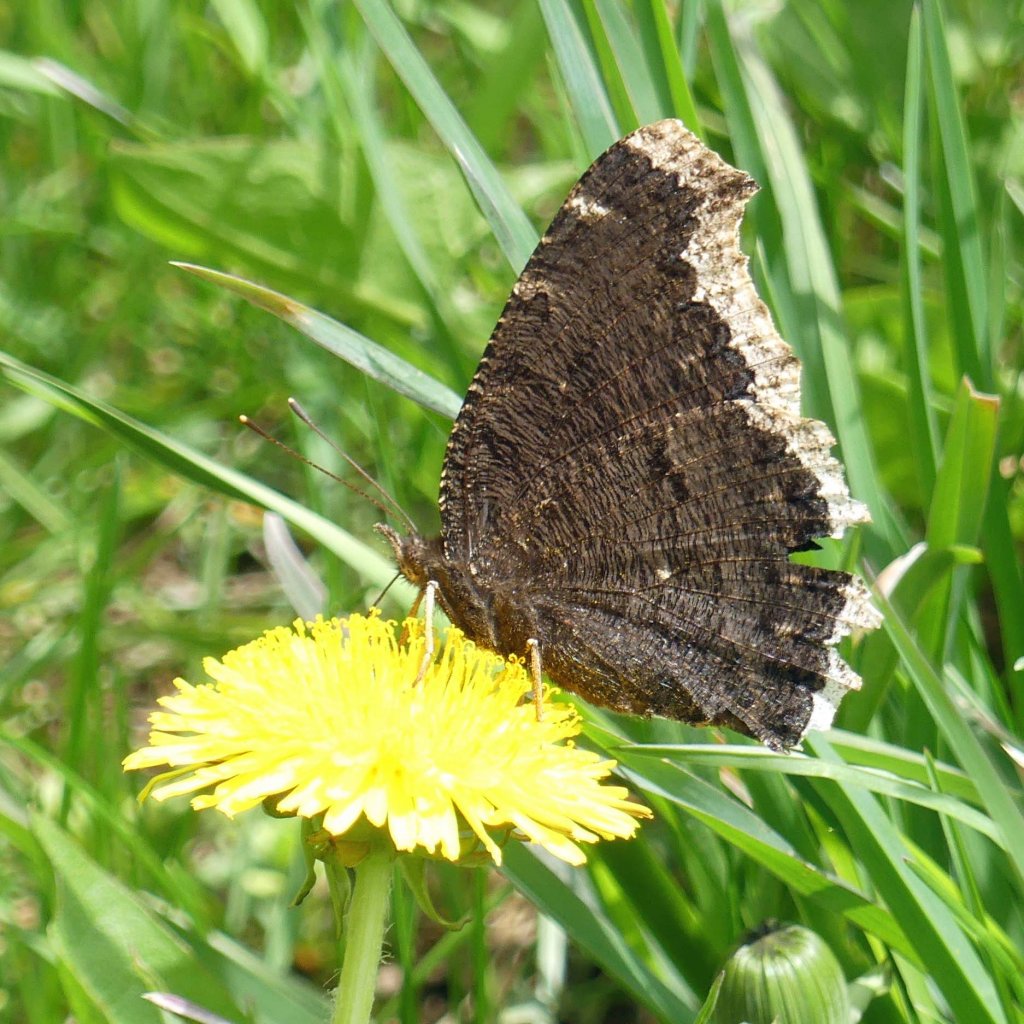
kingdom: Animalia
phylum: Arthropoda
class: Insecta
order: Lepidoptera
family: Nymphalidae
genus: Nymphalis
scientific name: Nymphalis antiopa
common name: Mourning Cloak
